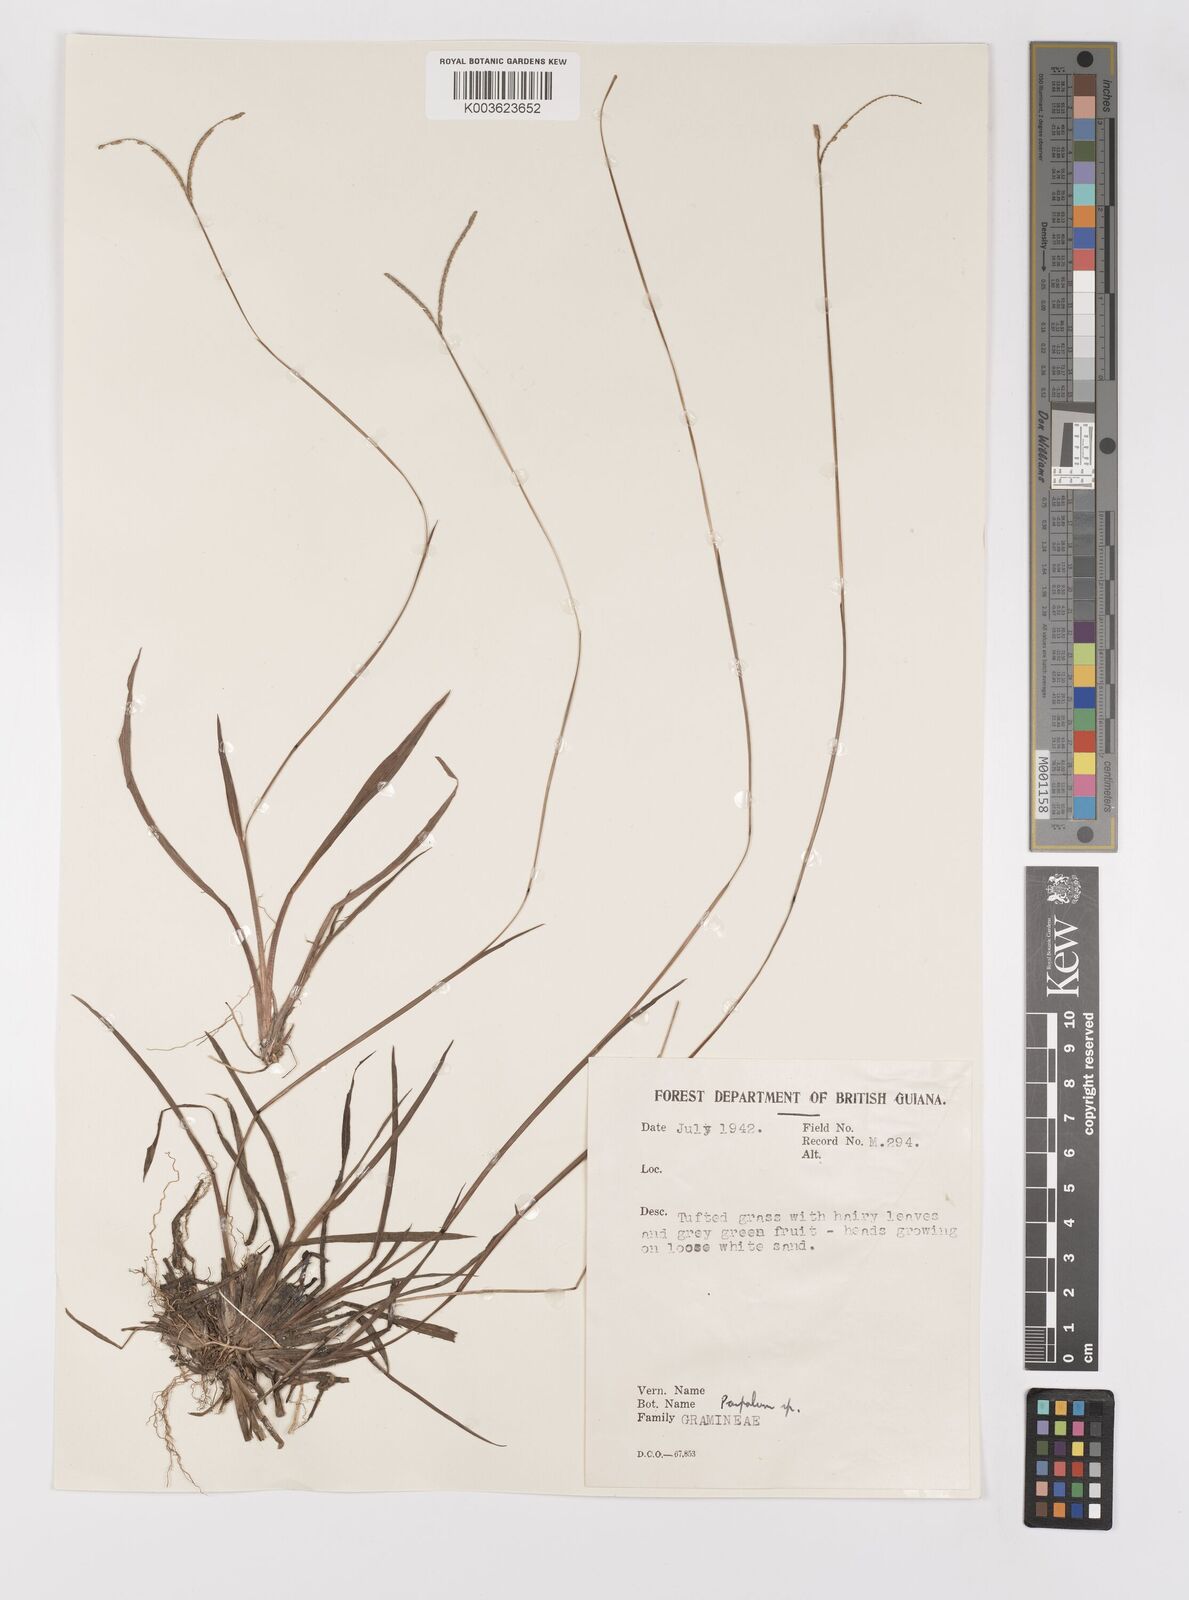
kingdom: Plantae
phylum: Tracheophyta
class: Liliopsida
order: Poales
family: Poaceae
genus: Paspalum
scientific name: Paspalum pumilum
